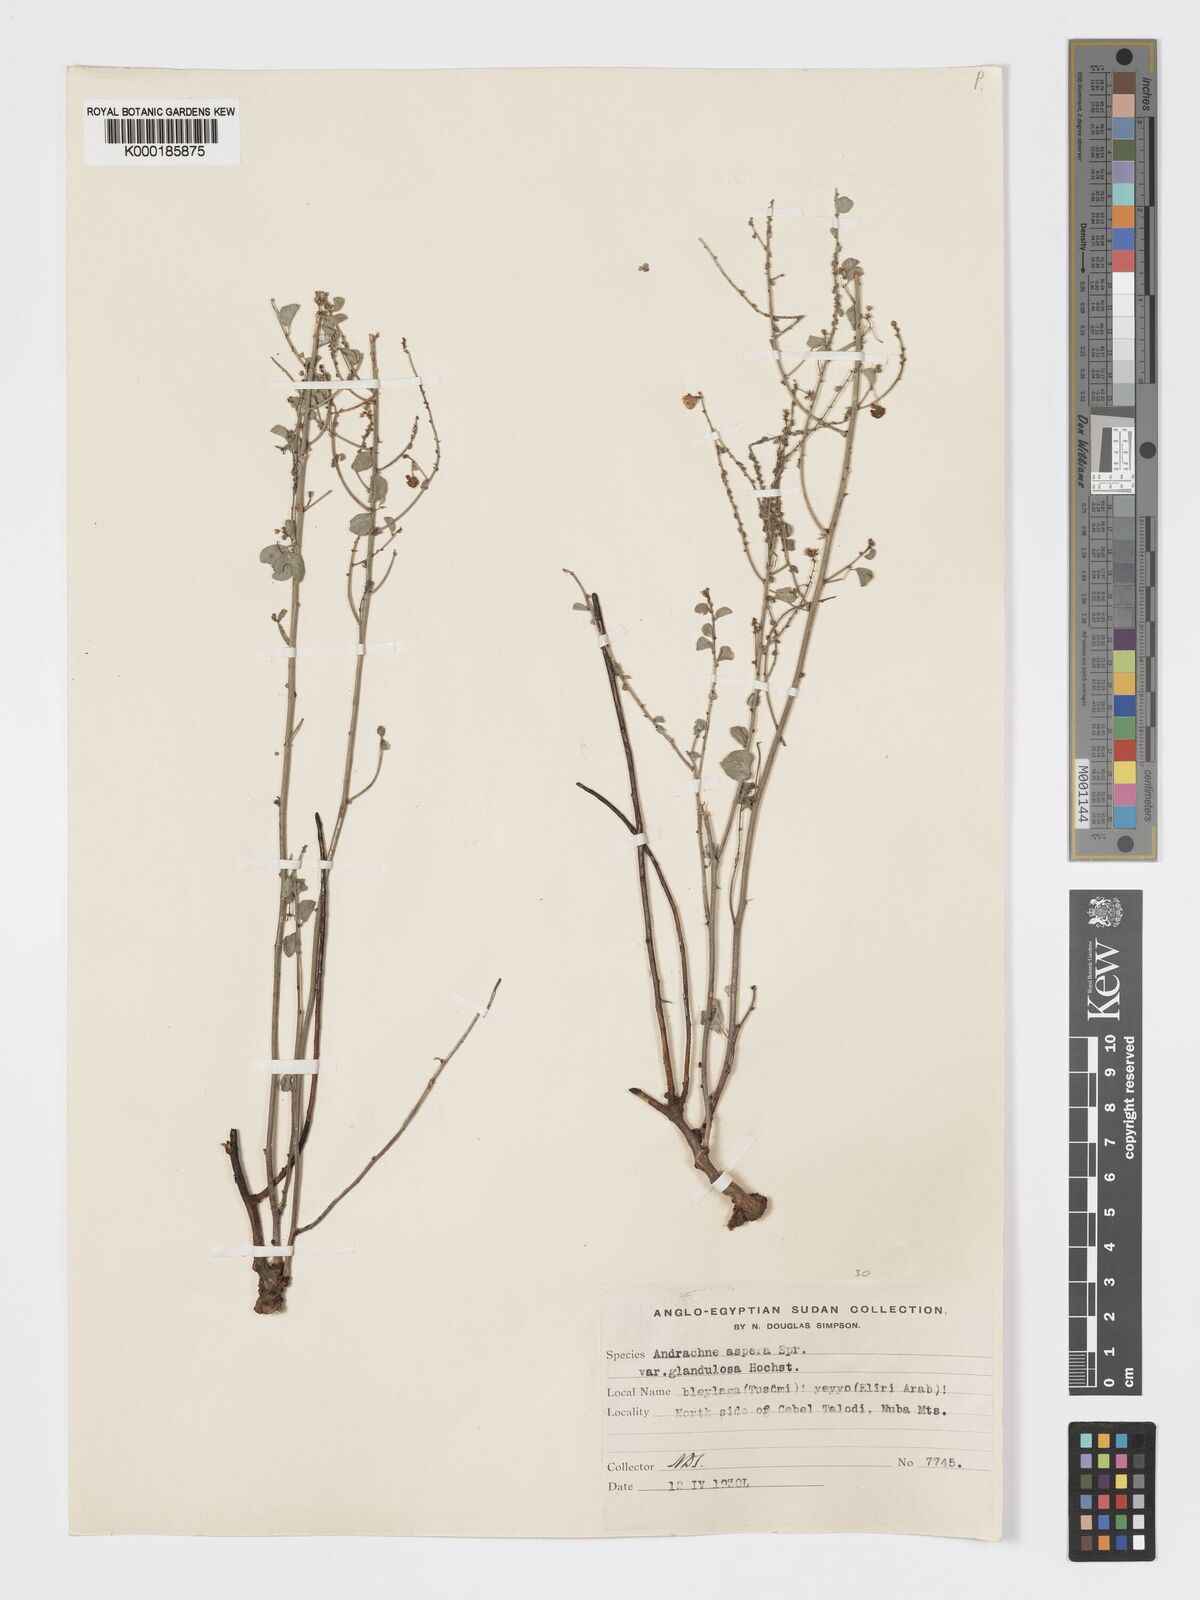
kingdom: Plantae
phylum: Tracheophyta
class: Magnoliopsida
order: Malpighiales
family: Phyllanthaceae
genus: Andrachne
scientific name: Andrachne aspera
